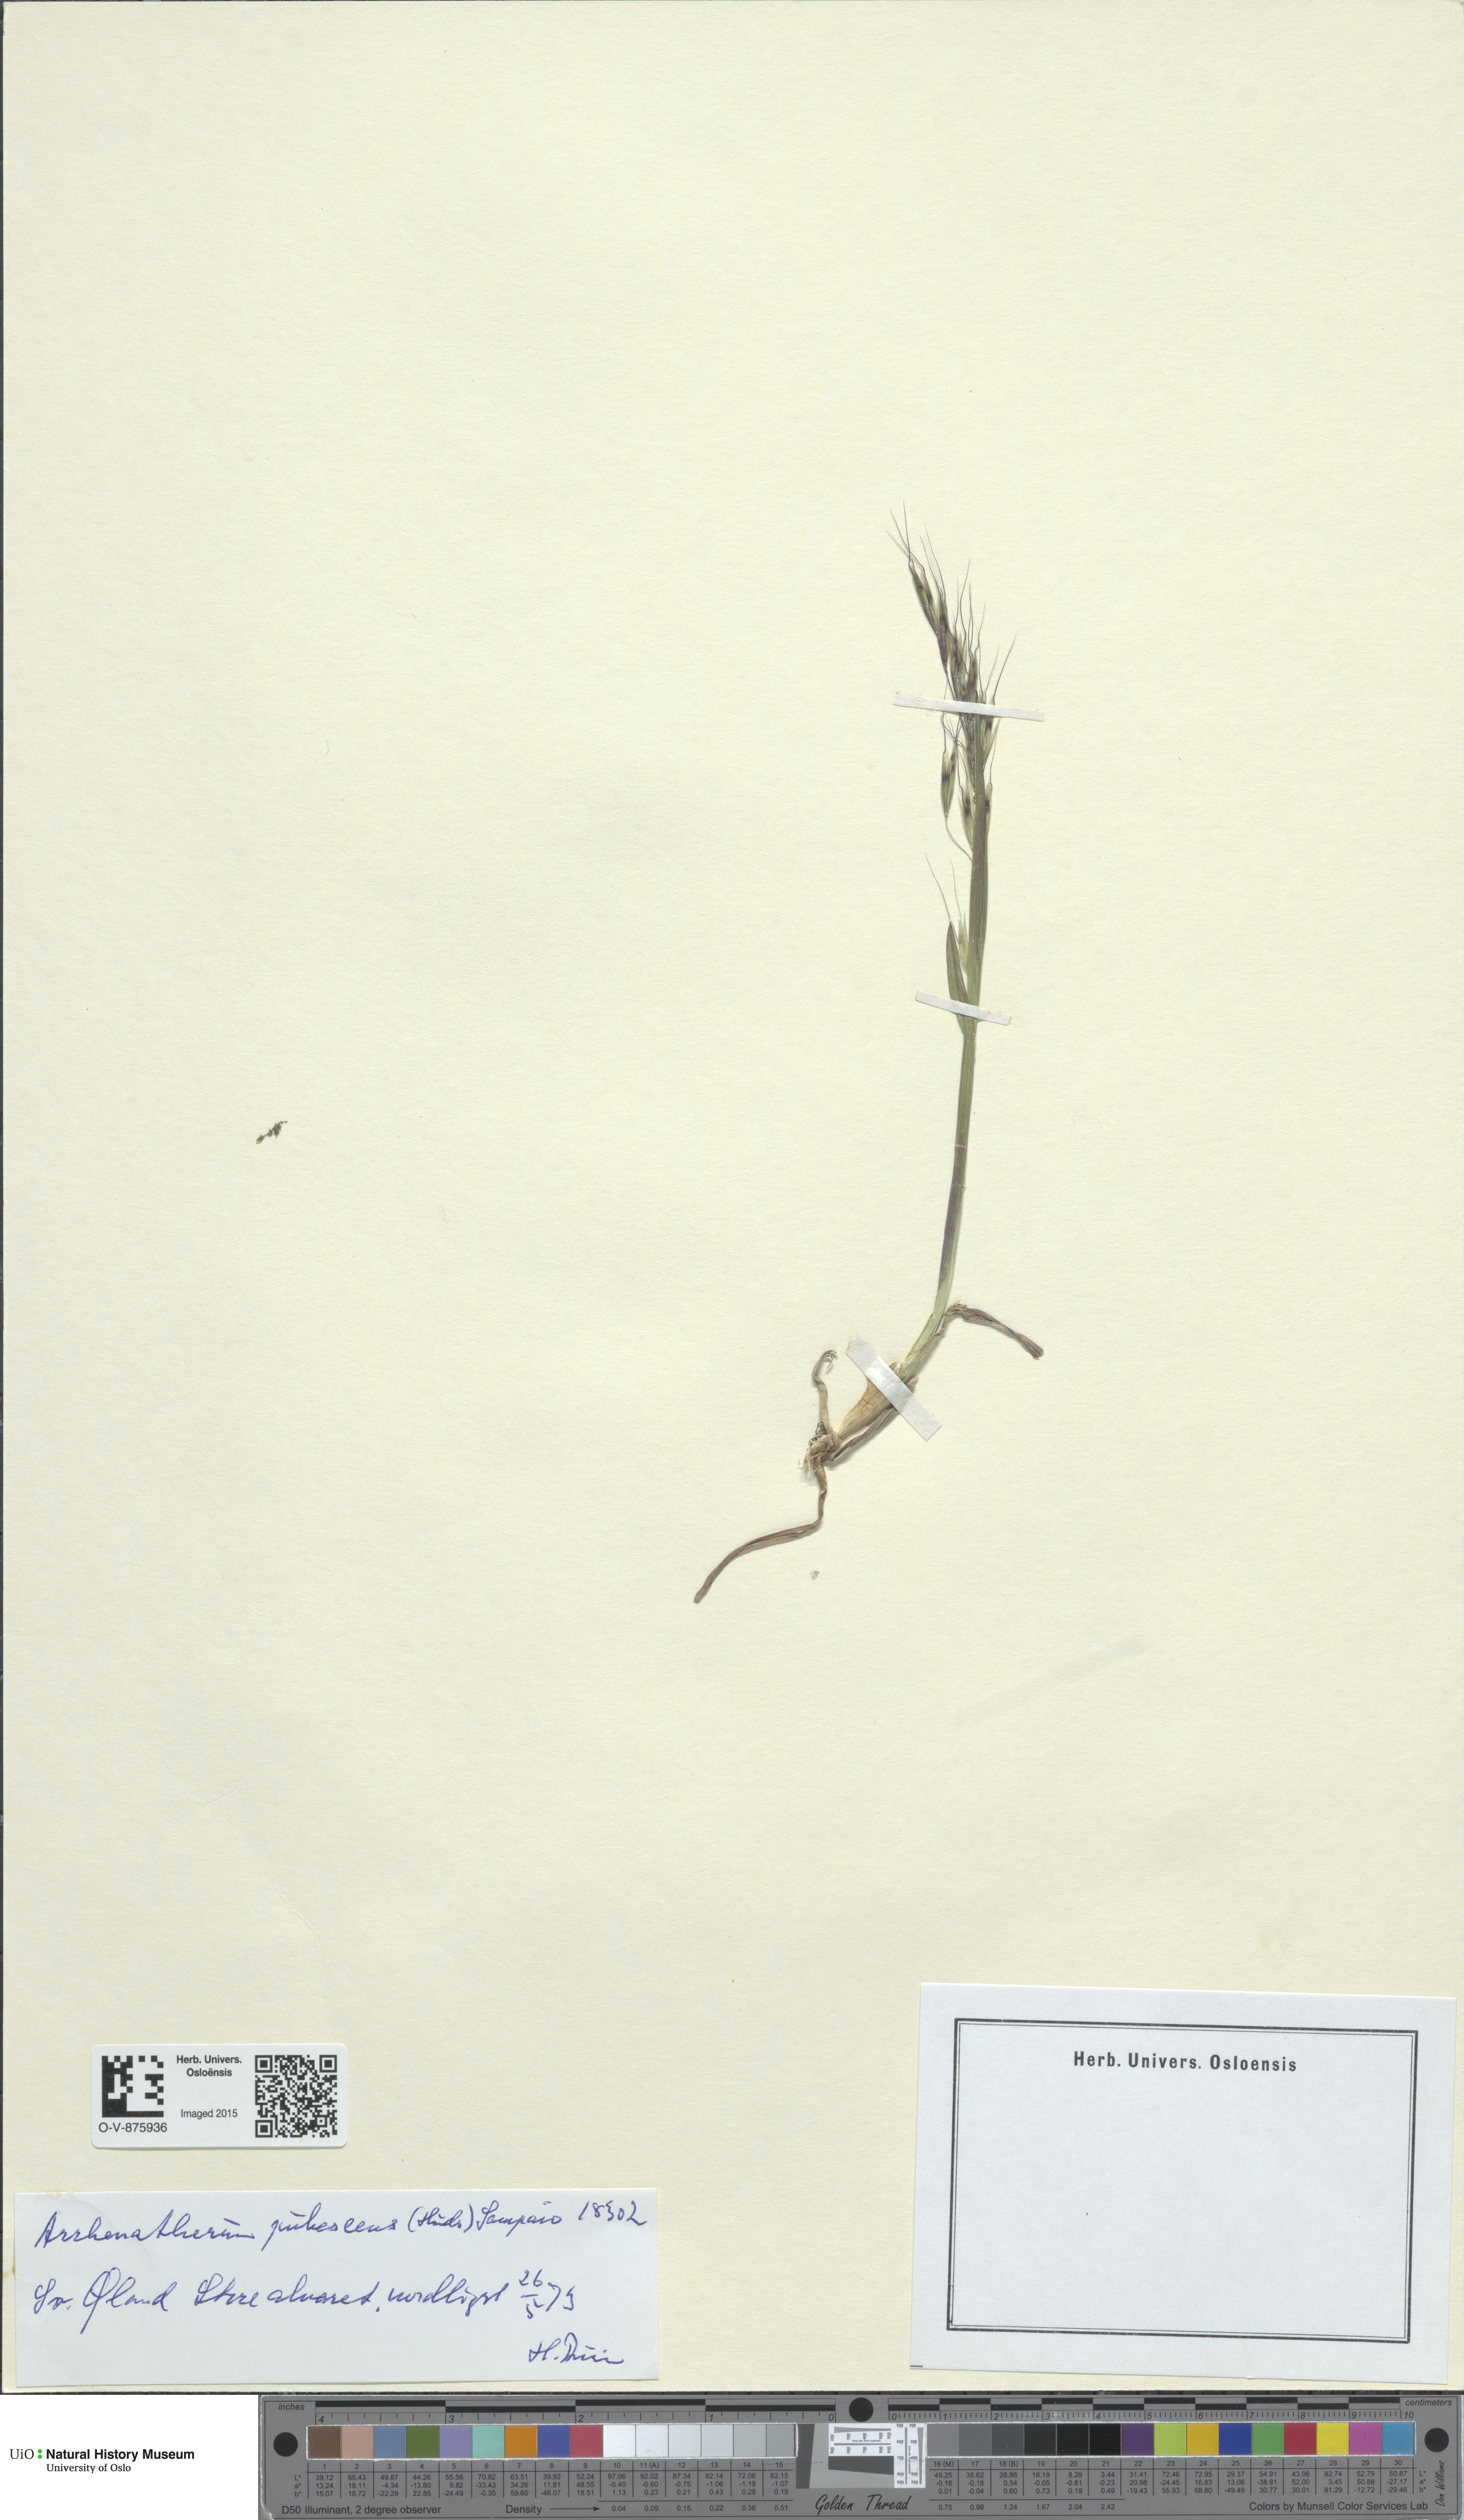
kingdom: Plantae
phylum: Tracheophyta
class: Liliopsida
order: Poales
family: Poaceae
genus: Avenula
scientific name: Avenula pubescens
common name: Downy alpine oatgrass
